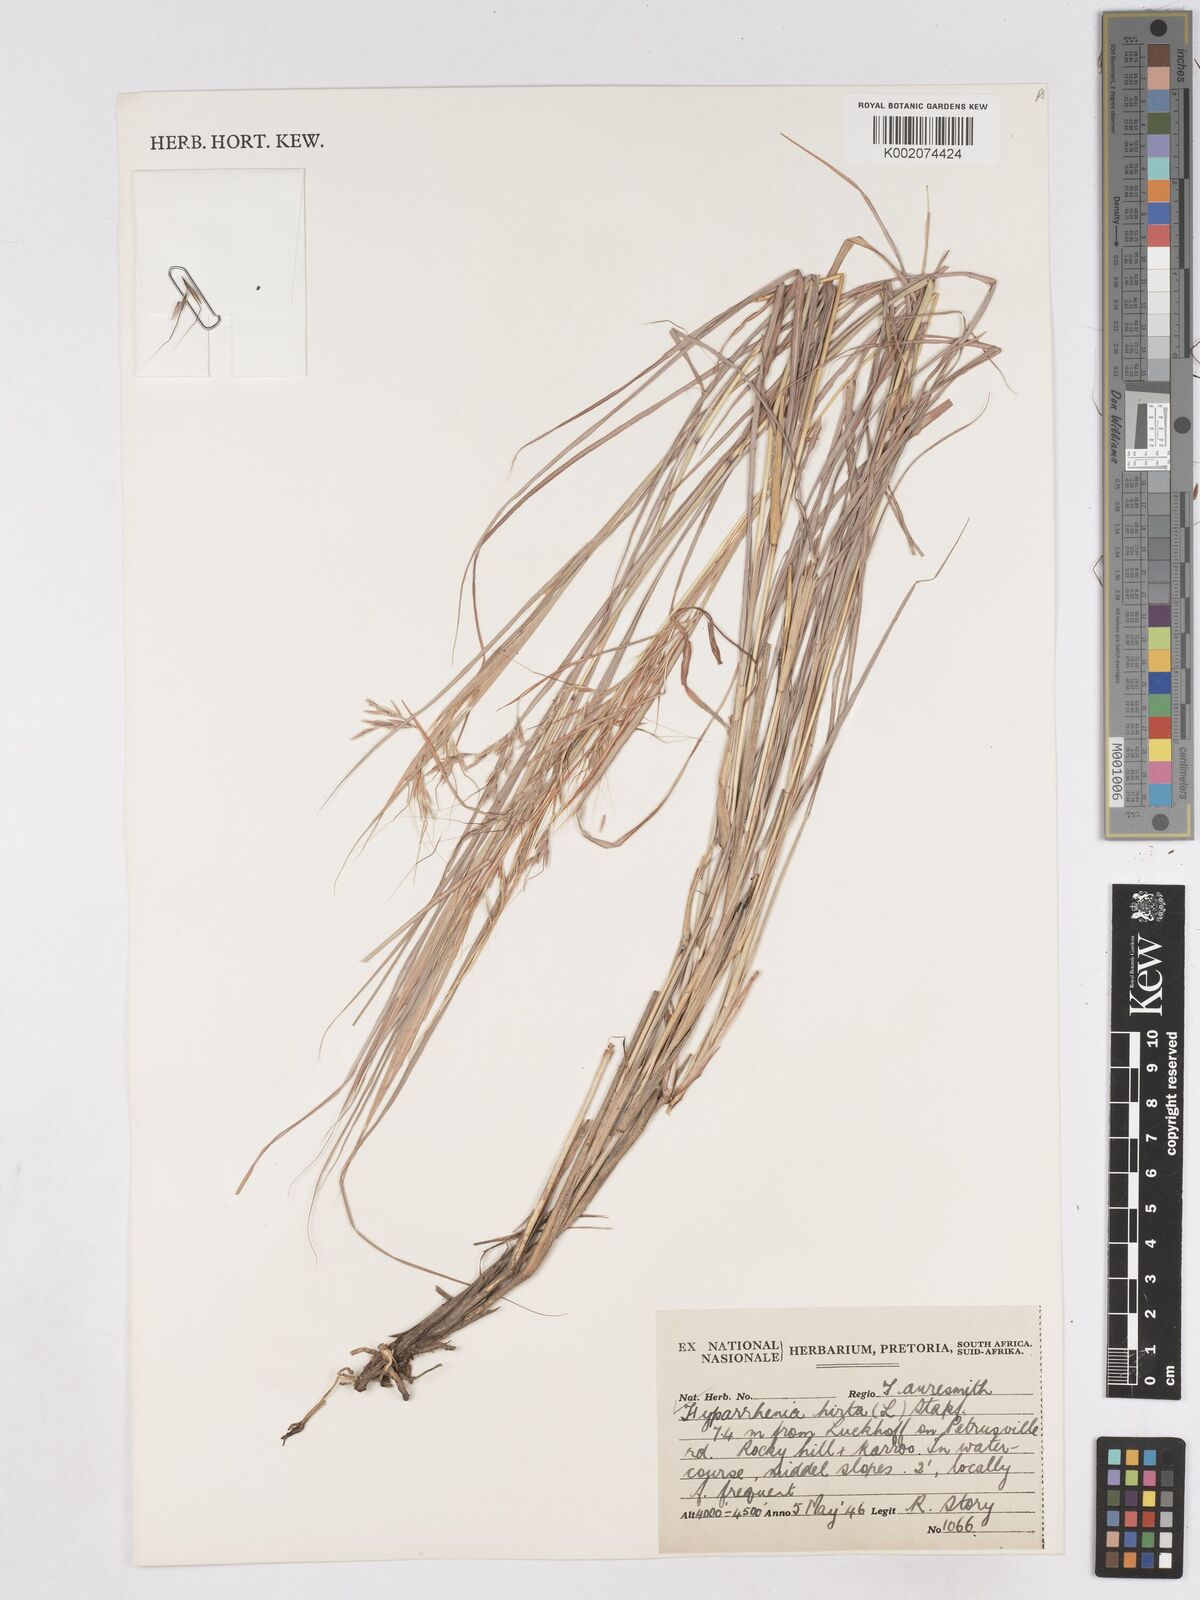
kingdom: Plantae
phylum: Tracheophyta
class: Liliopsida
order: Poales
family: Poaceae
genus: Hyparrhenia
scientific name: Hyparrhenia hirta
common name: Thatching grass
